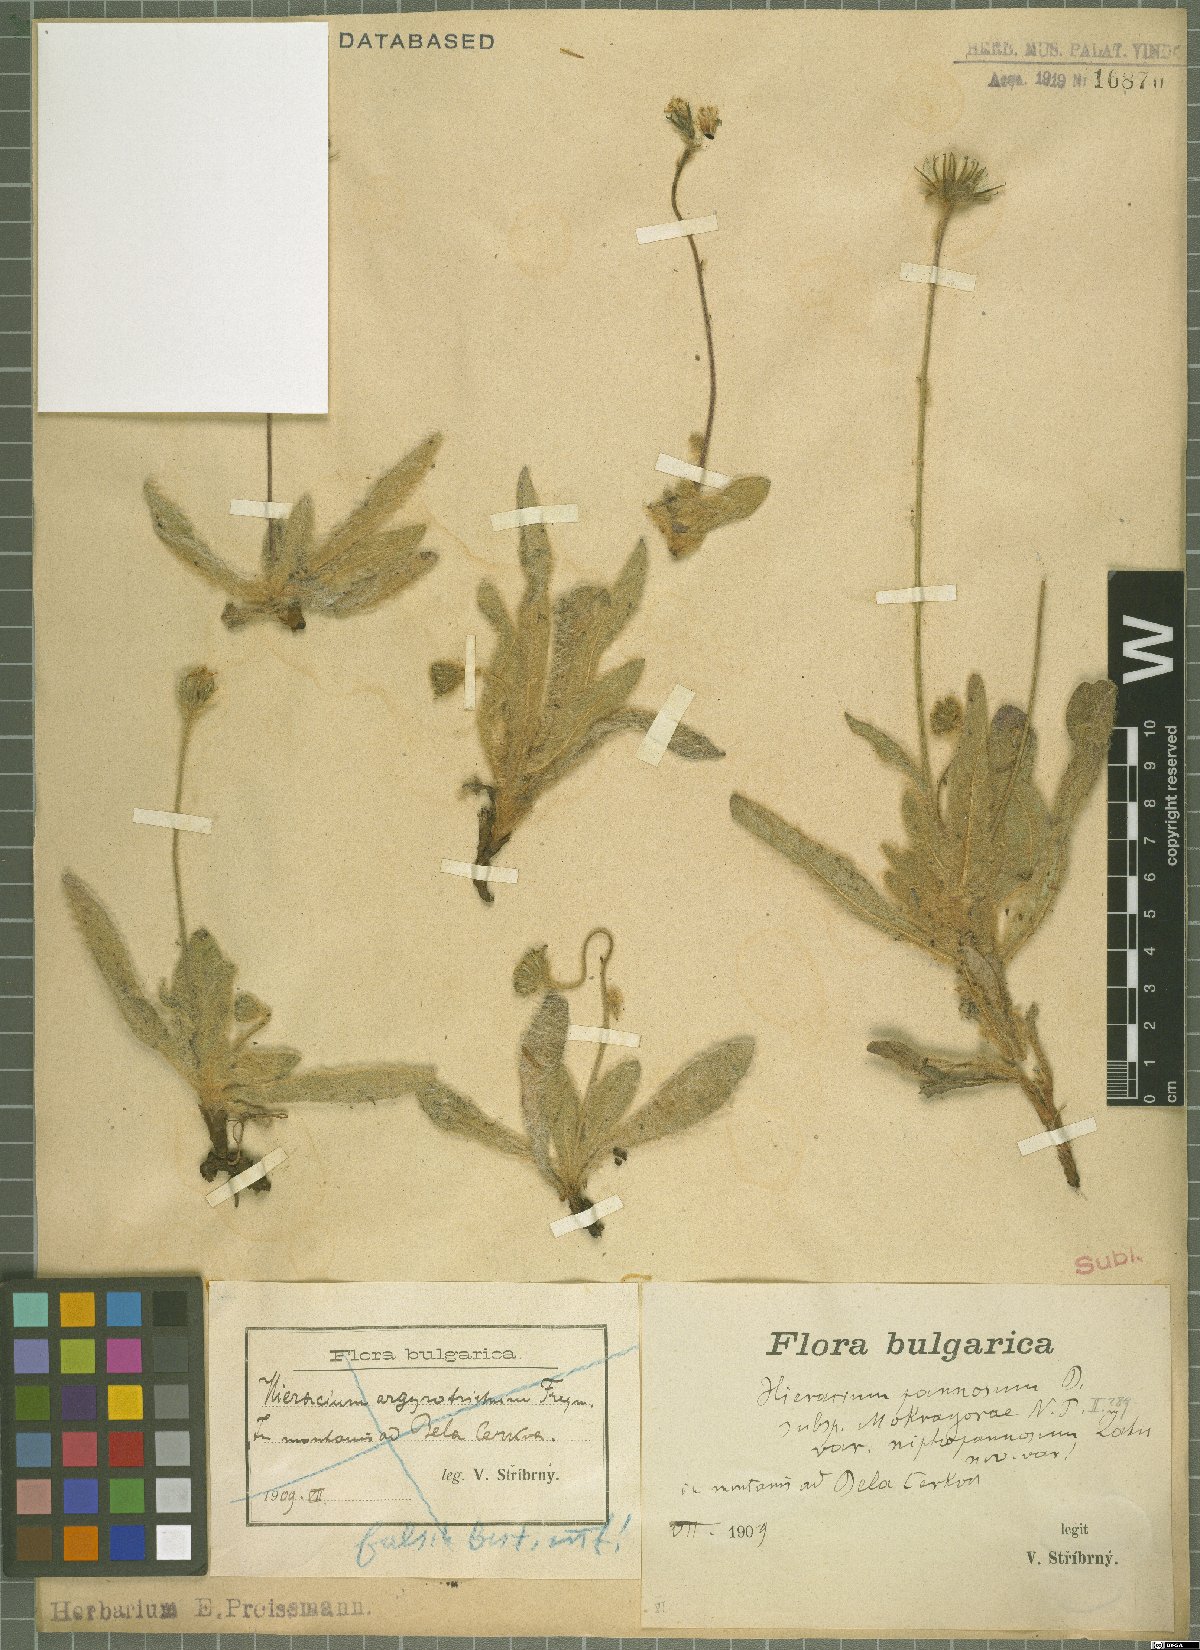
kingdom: Plantae
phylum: Tracheophyta
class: Magnoliopsida
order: Asterales
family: Asteraceae
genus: Hieracium
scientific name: Hieracium pannosum
